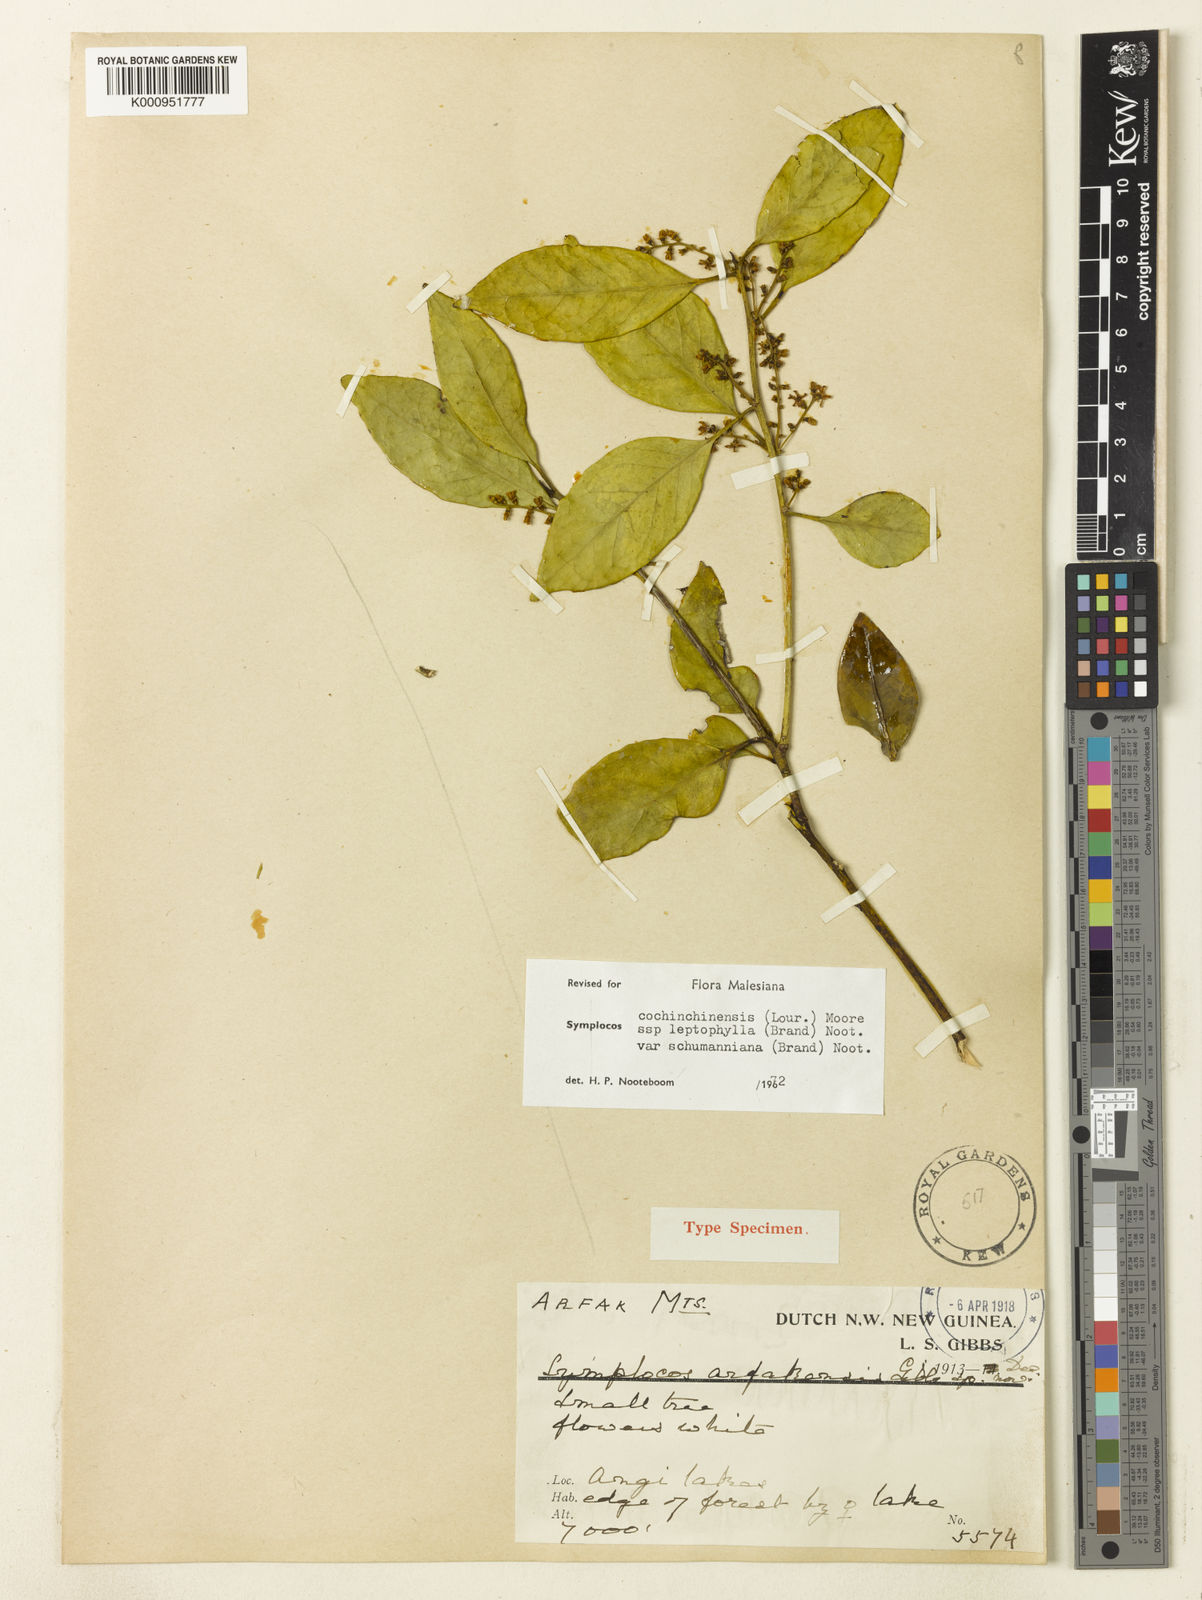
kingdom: Plantae
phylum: Tracheophyta
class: Magnoliopsida
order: Ericales
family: Symplocaceae
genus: Symplocos
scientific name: Symplocos cochinchinensis
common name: Buff hazelwood
